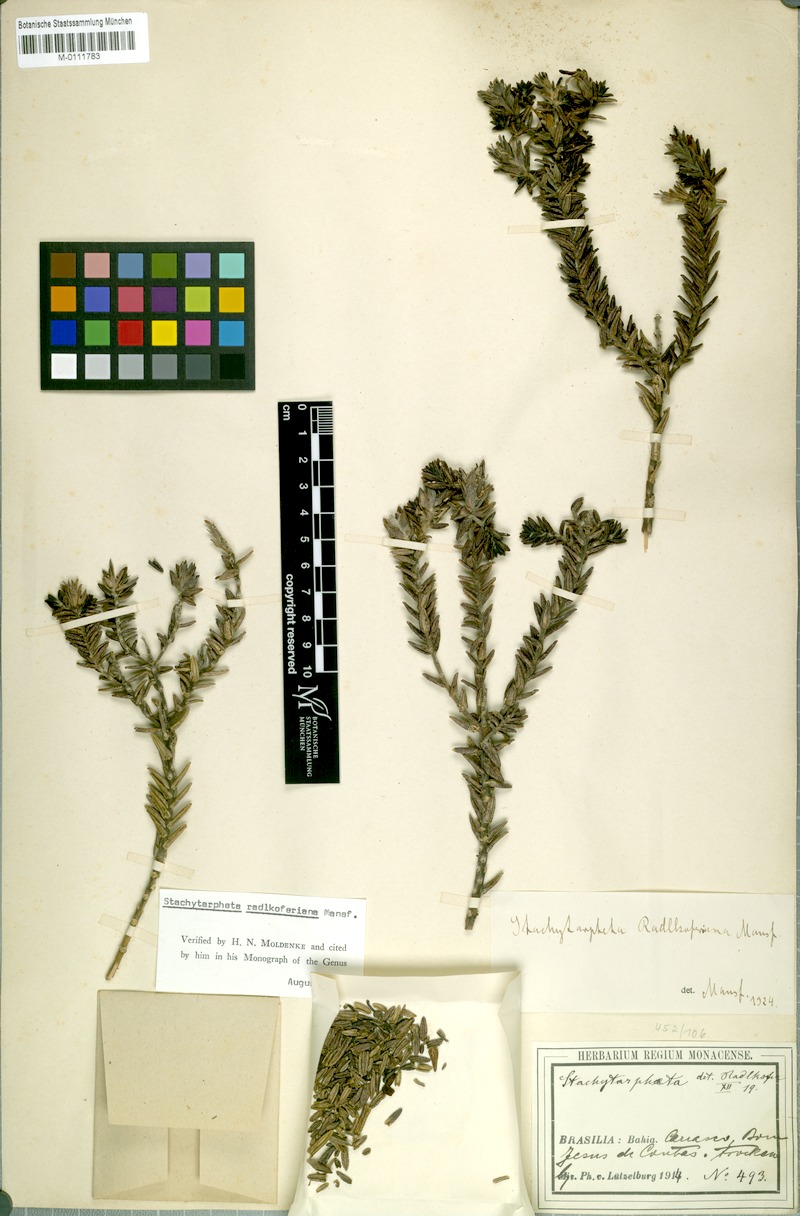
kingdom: Plantae
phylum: Tracheophyta
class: Magnoliopsida
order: Lamiales
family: Verbenaceae
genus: Stachytarpheta
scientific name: Stachytarpheta radlkoferiana
